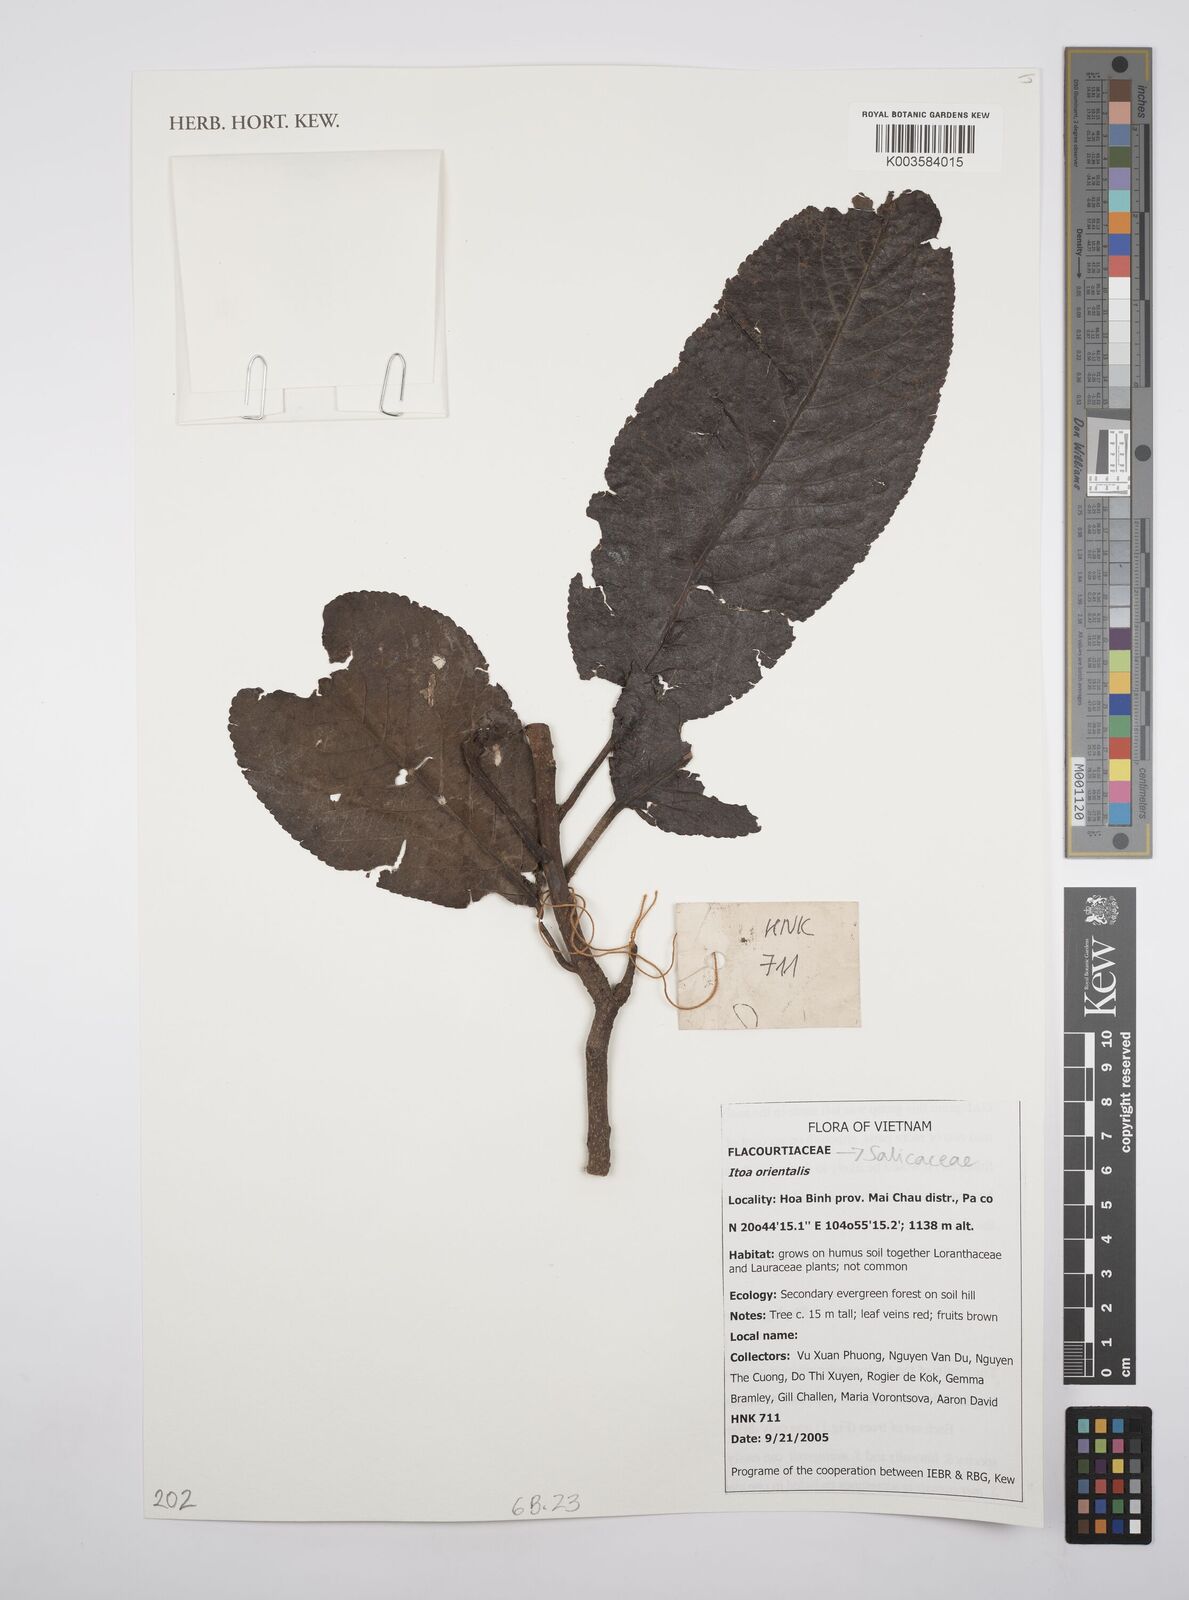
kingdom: Plantae
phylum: Tracheophyta
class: Magnoliopsida
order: Malpighiales
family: Salicaceae
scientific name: Salicaceae
